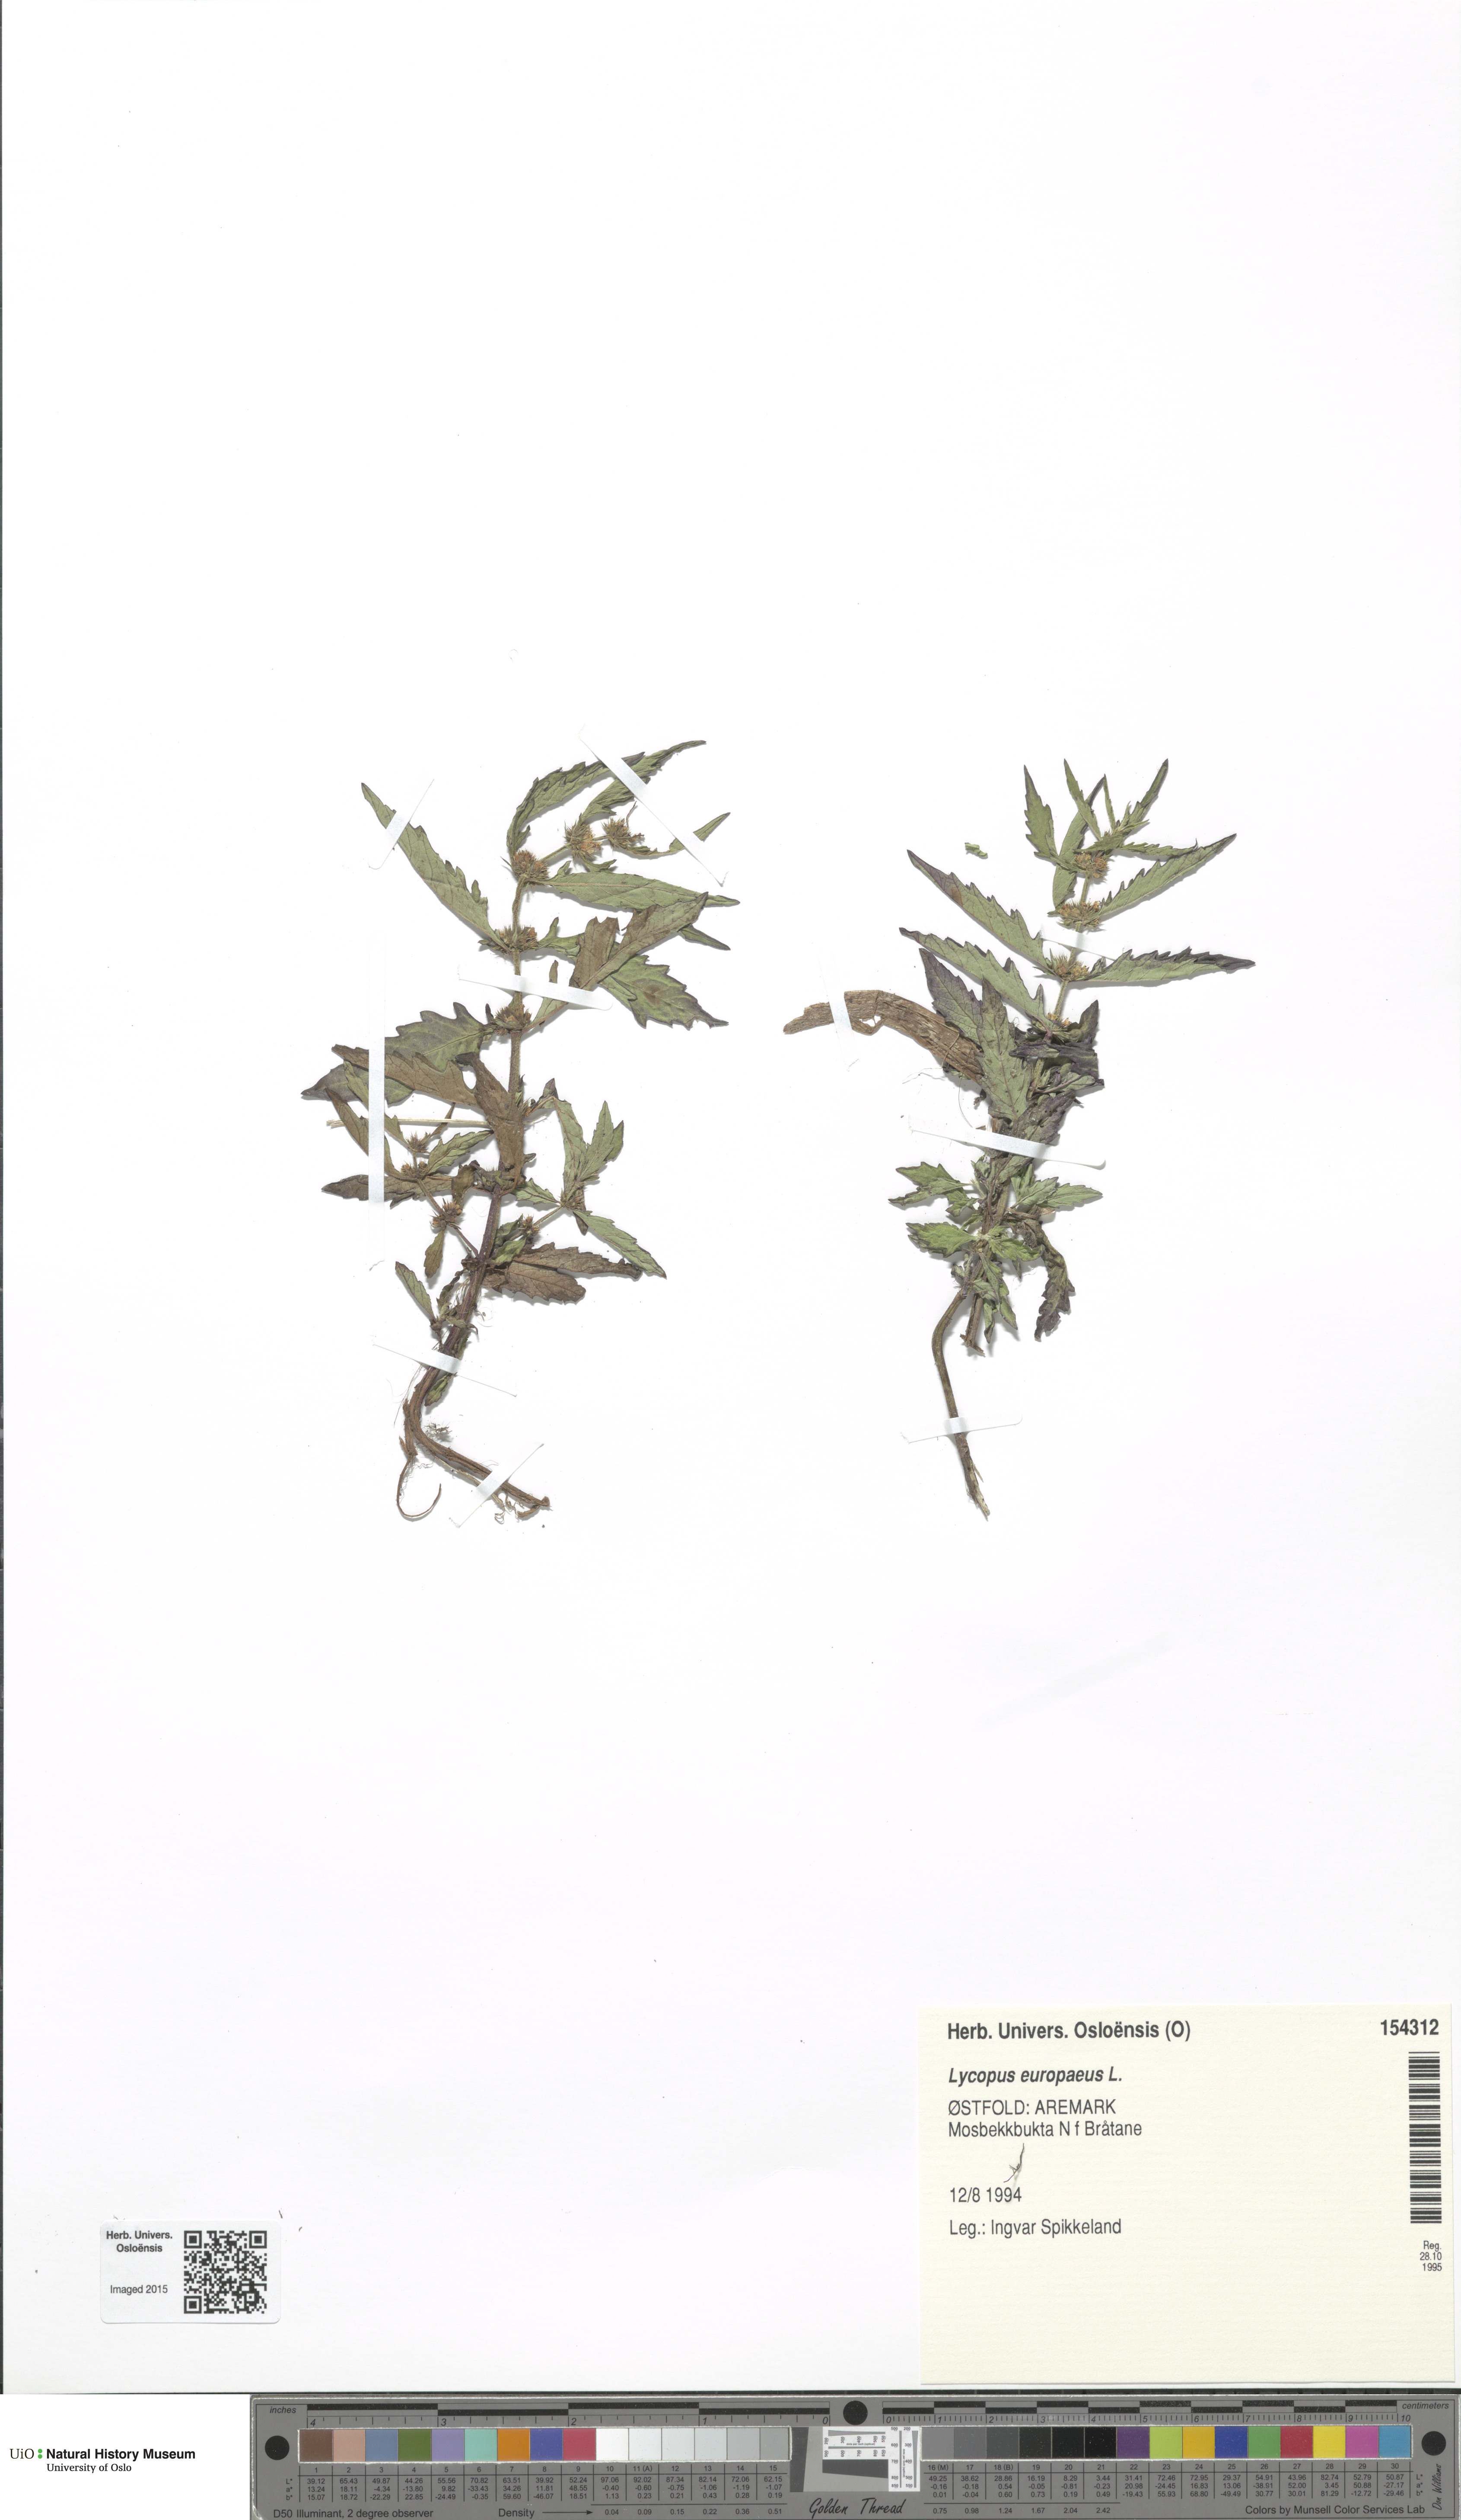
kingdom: Plantae
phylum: Tracheophyta
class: Magnoliopsida
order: Lamiales
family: Lamiaceae
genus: Lycopus
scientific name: Lycopus europaeus
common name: European bugleweed
